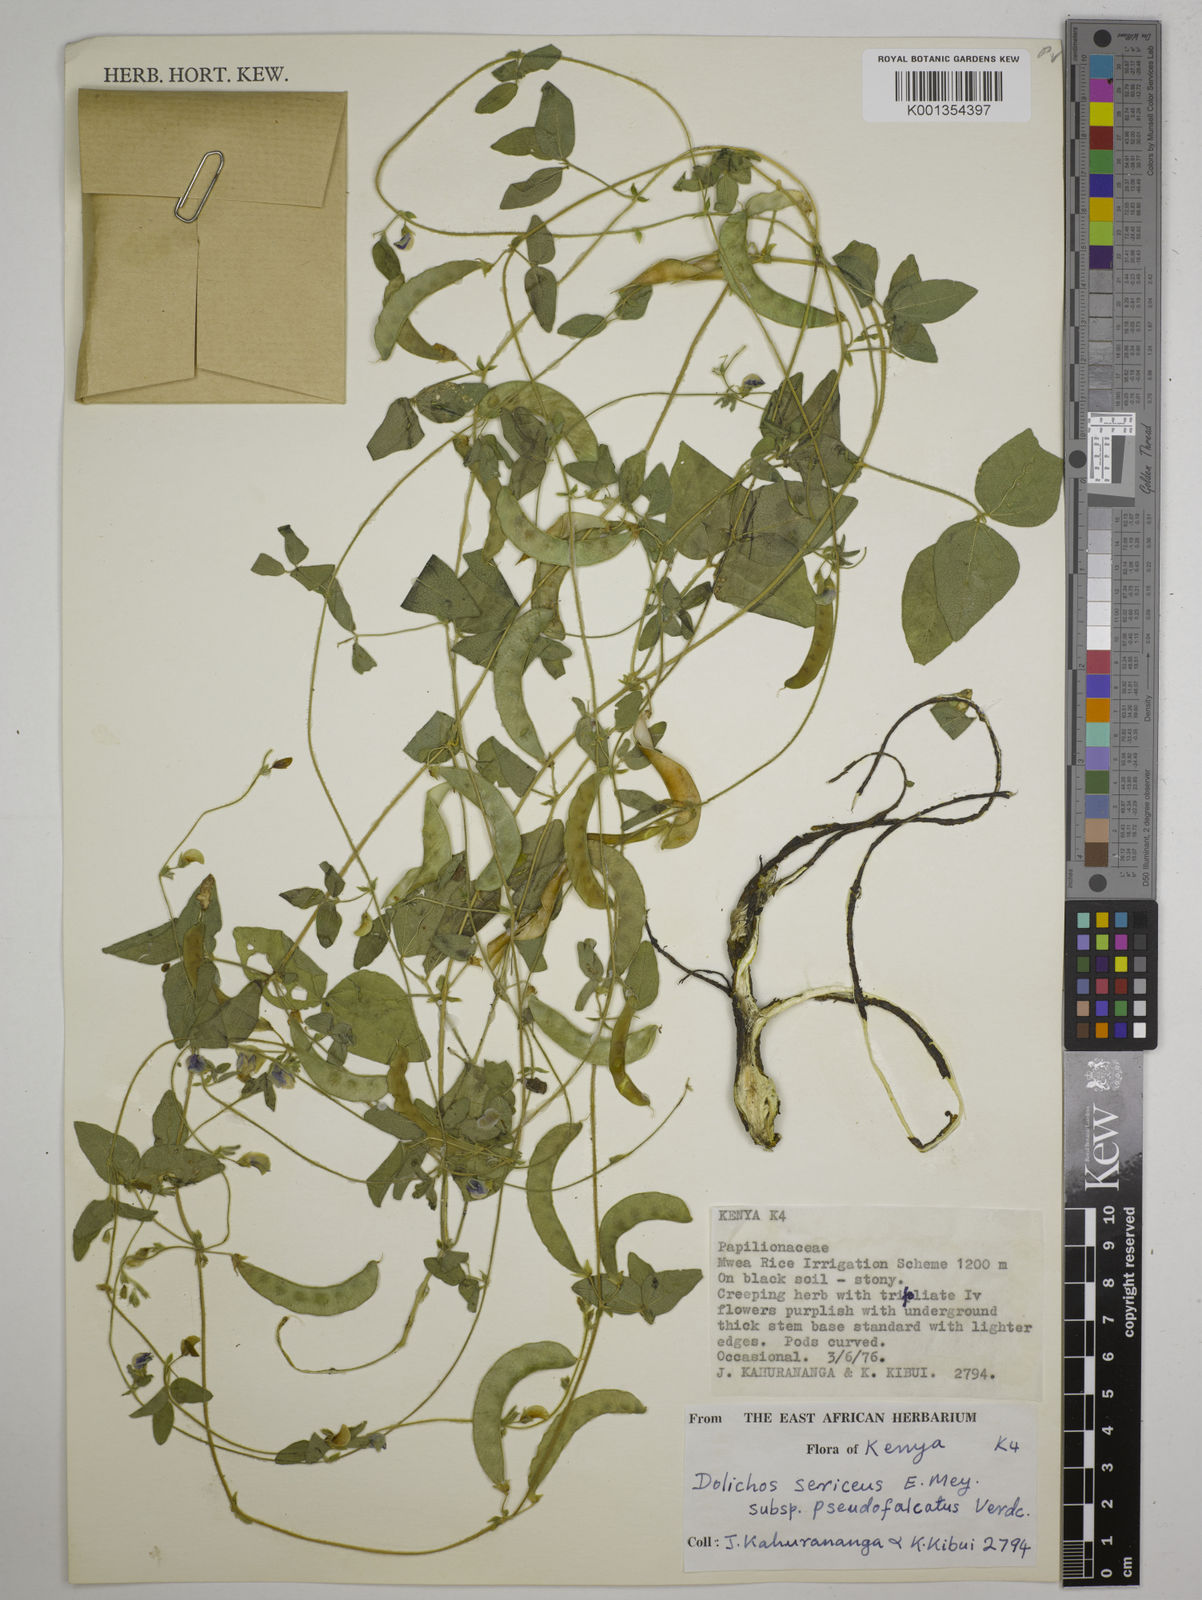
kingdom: Plantae
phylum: Tracheophyta
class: Magnoliopsida
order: Fabales
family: Fabaceae
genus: Dolichos
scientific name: Dolichos
